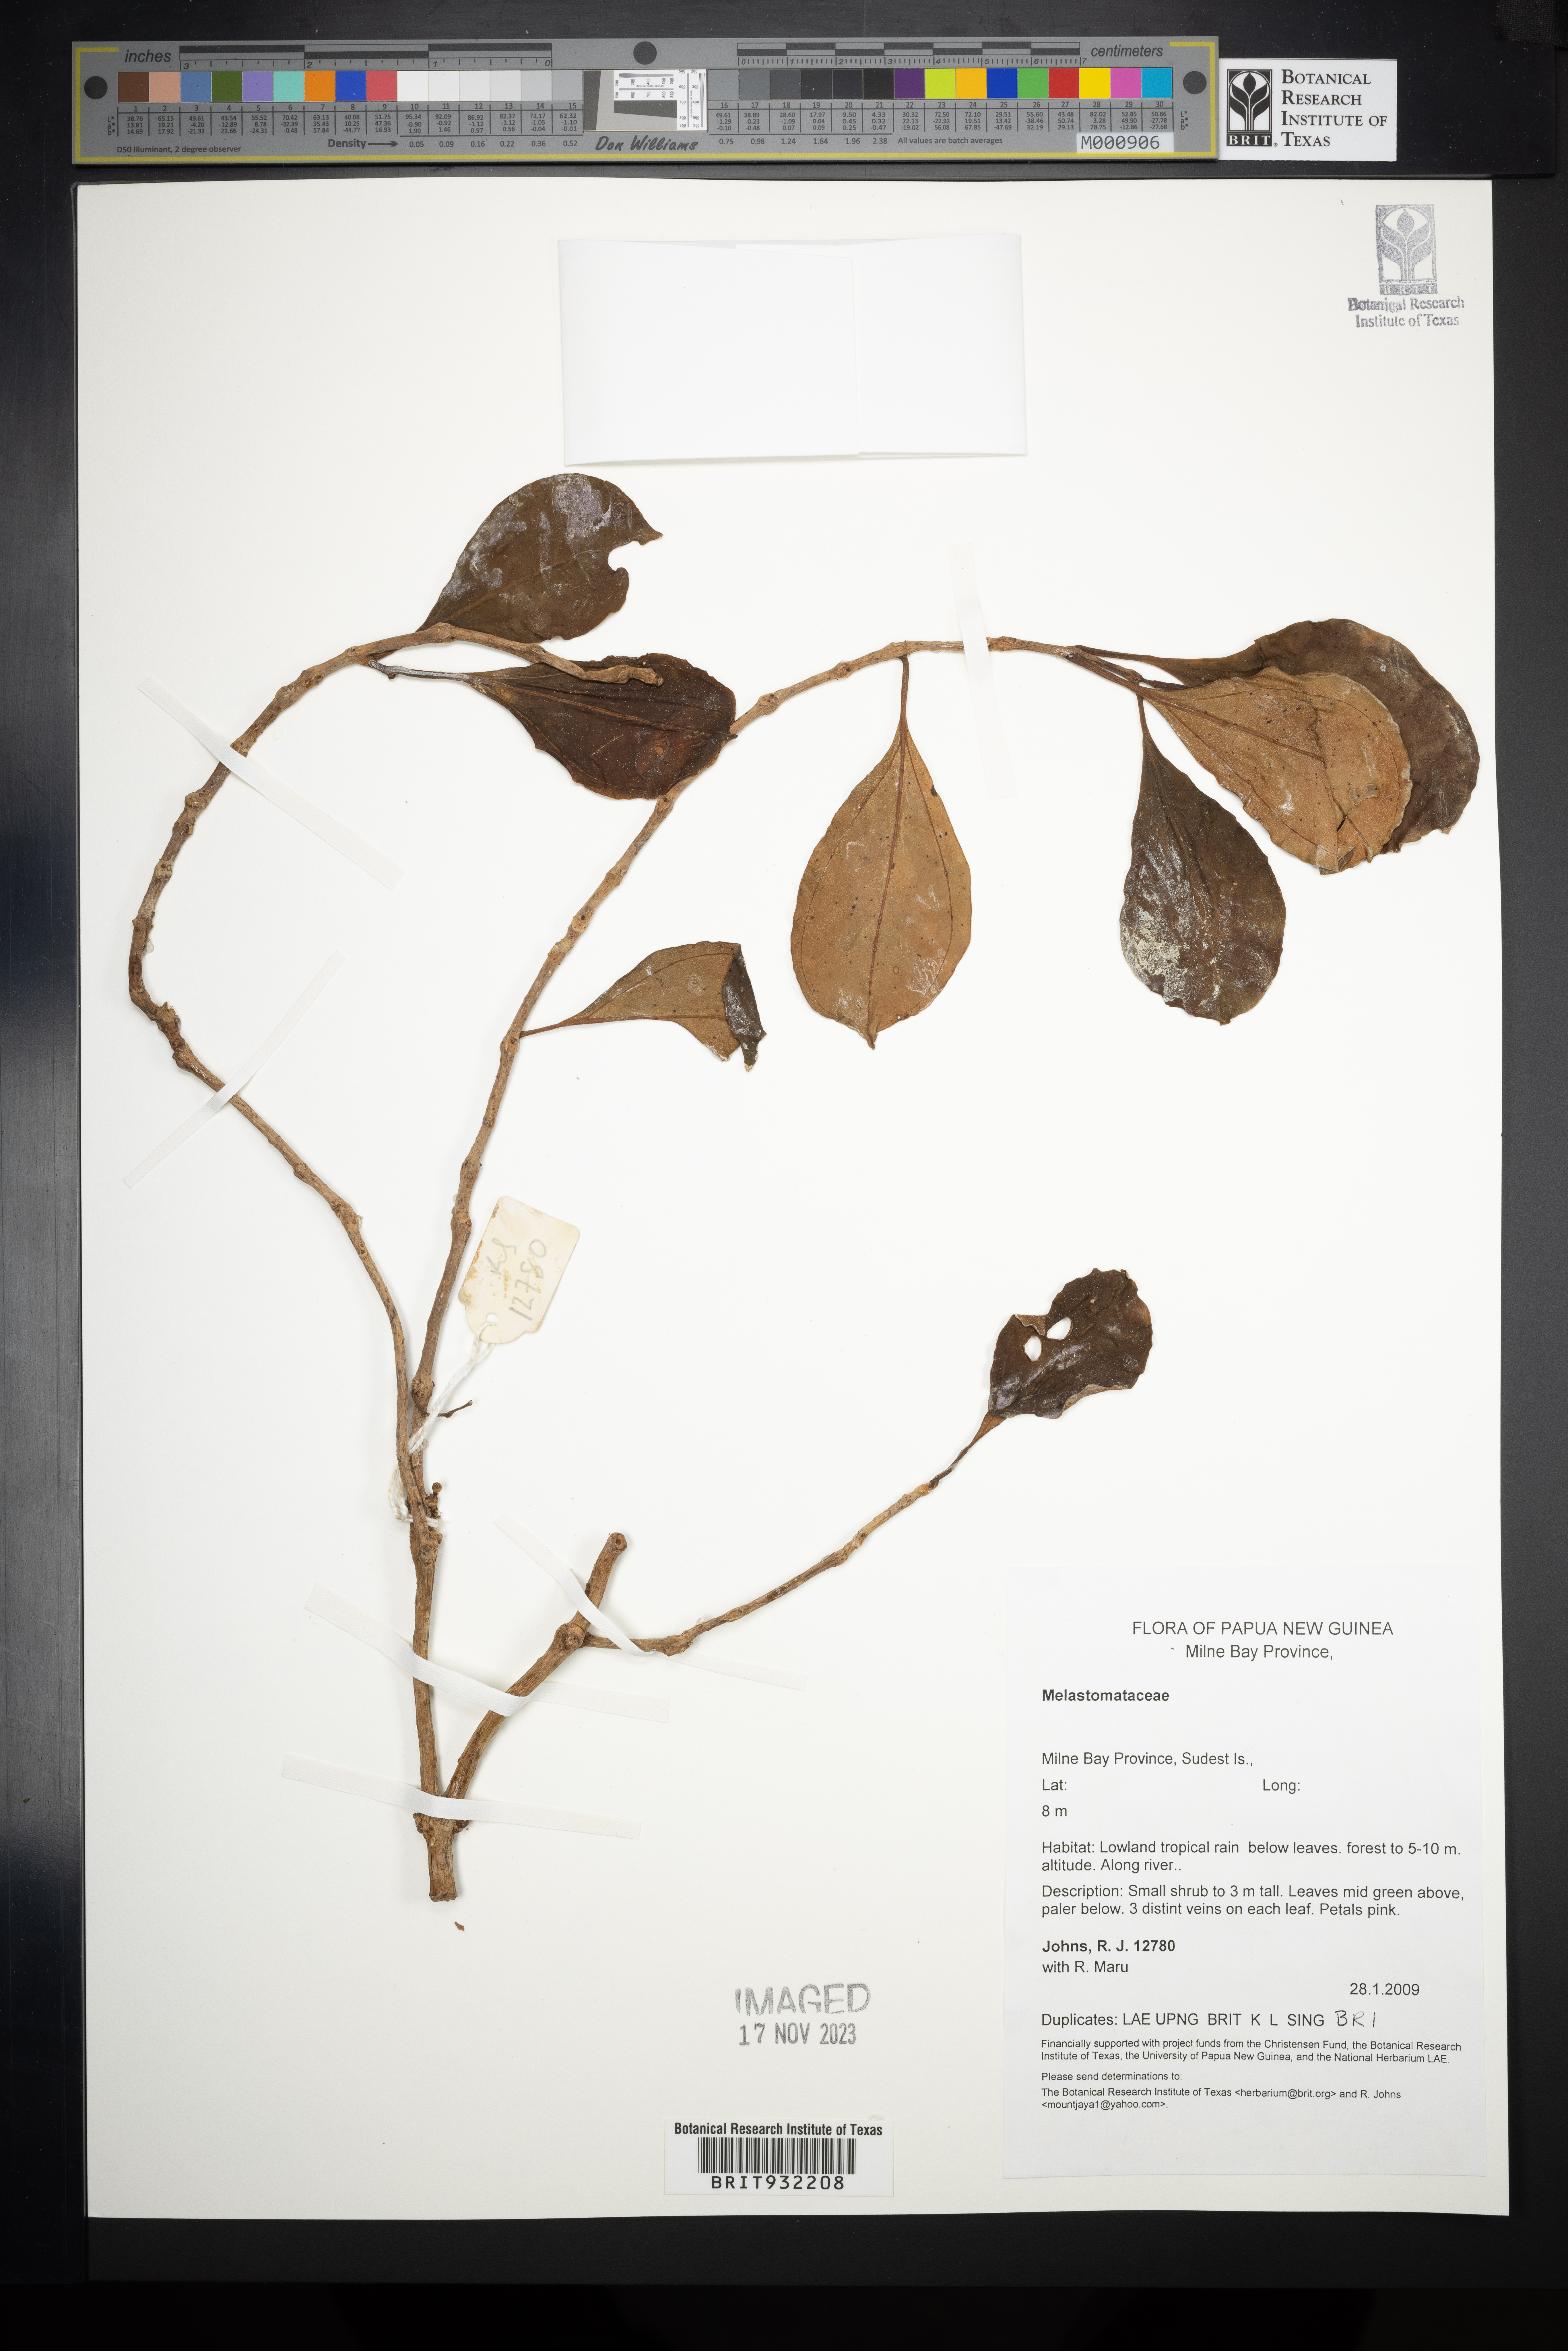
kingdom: Plantae
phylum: Tracheophyta
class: Magnoliopsida
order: Myrtales
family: Melastomataceae
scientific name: Melastomataceae
